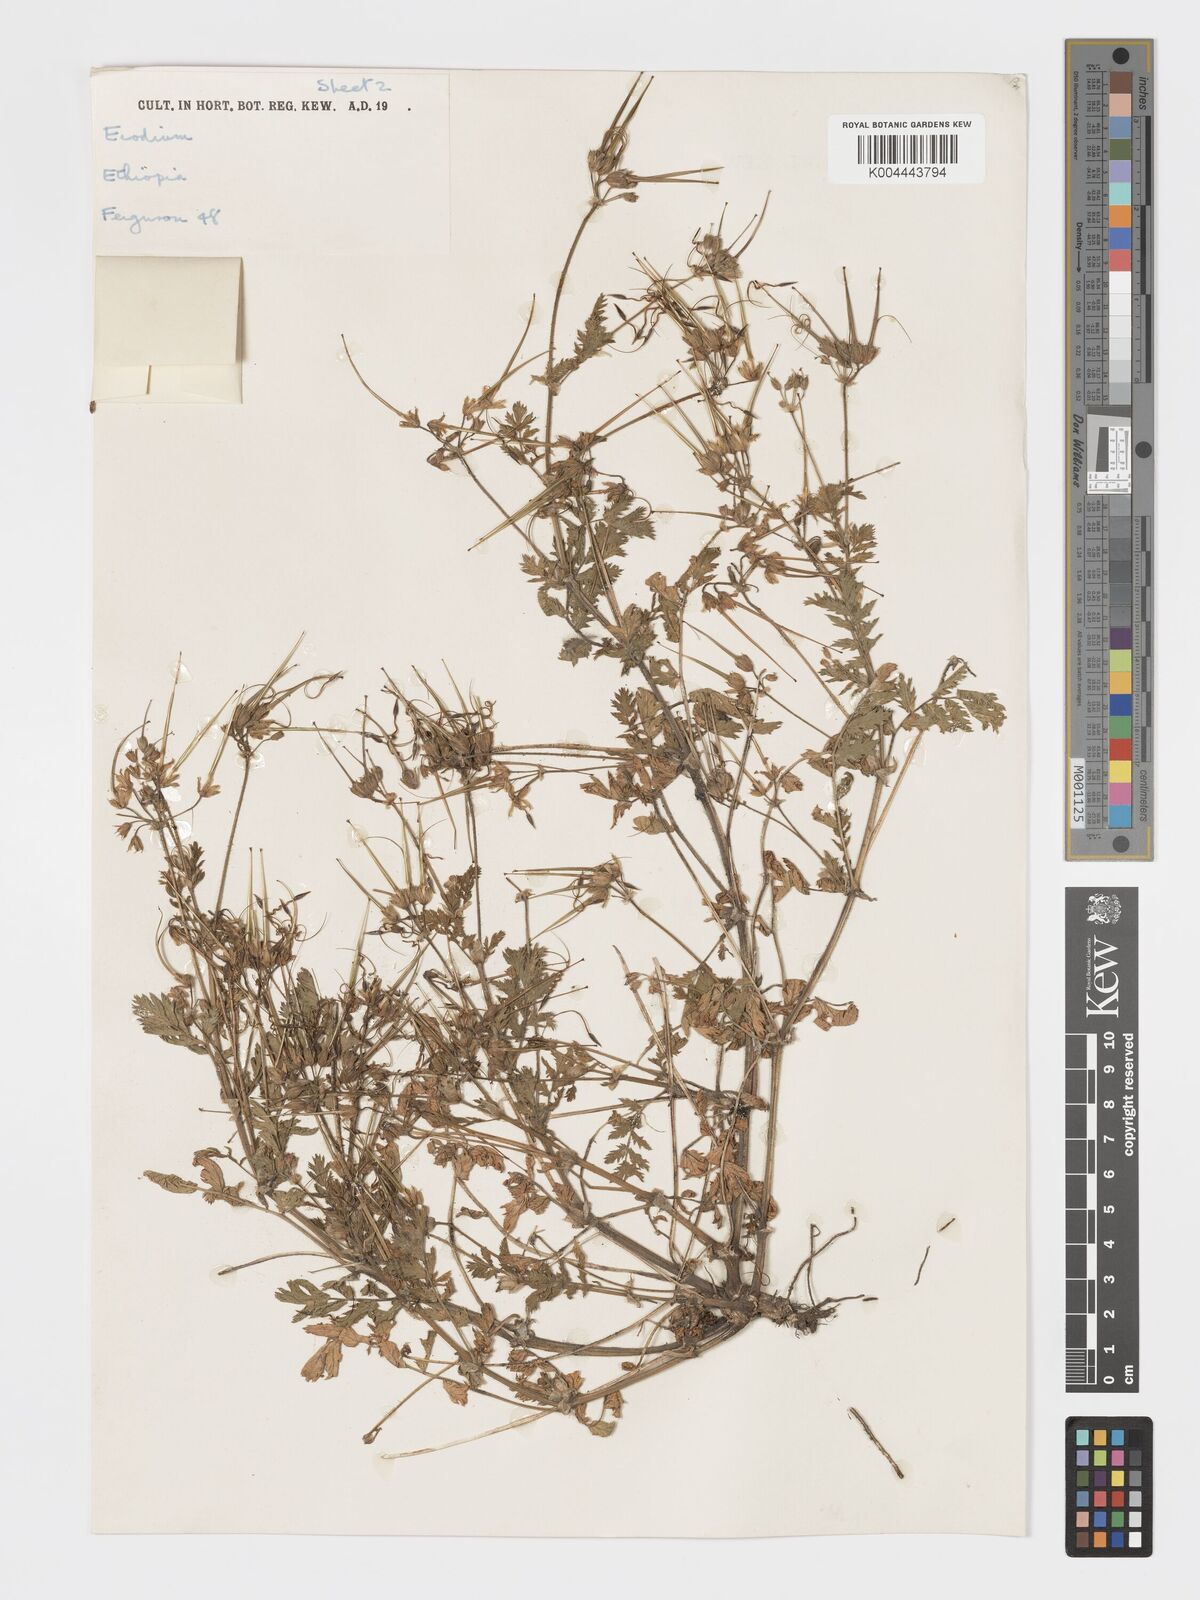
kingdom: Plantae
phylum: Tracheophyta
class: Magnoliopsida
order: Geraniales
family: Geraniaceae
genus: Erodium
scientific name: Erodium moschatum
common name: Musk stork's-bill
